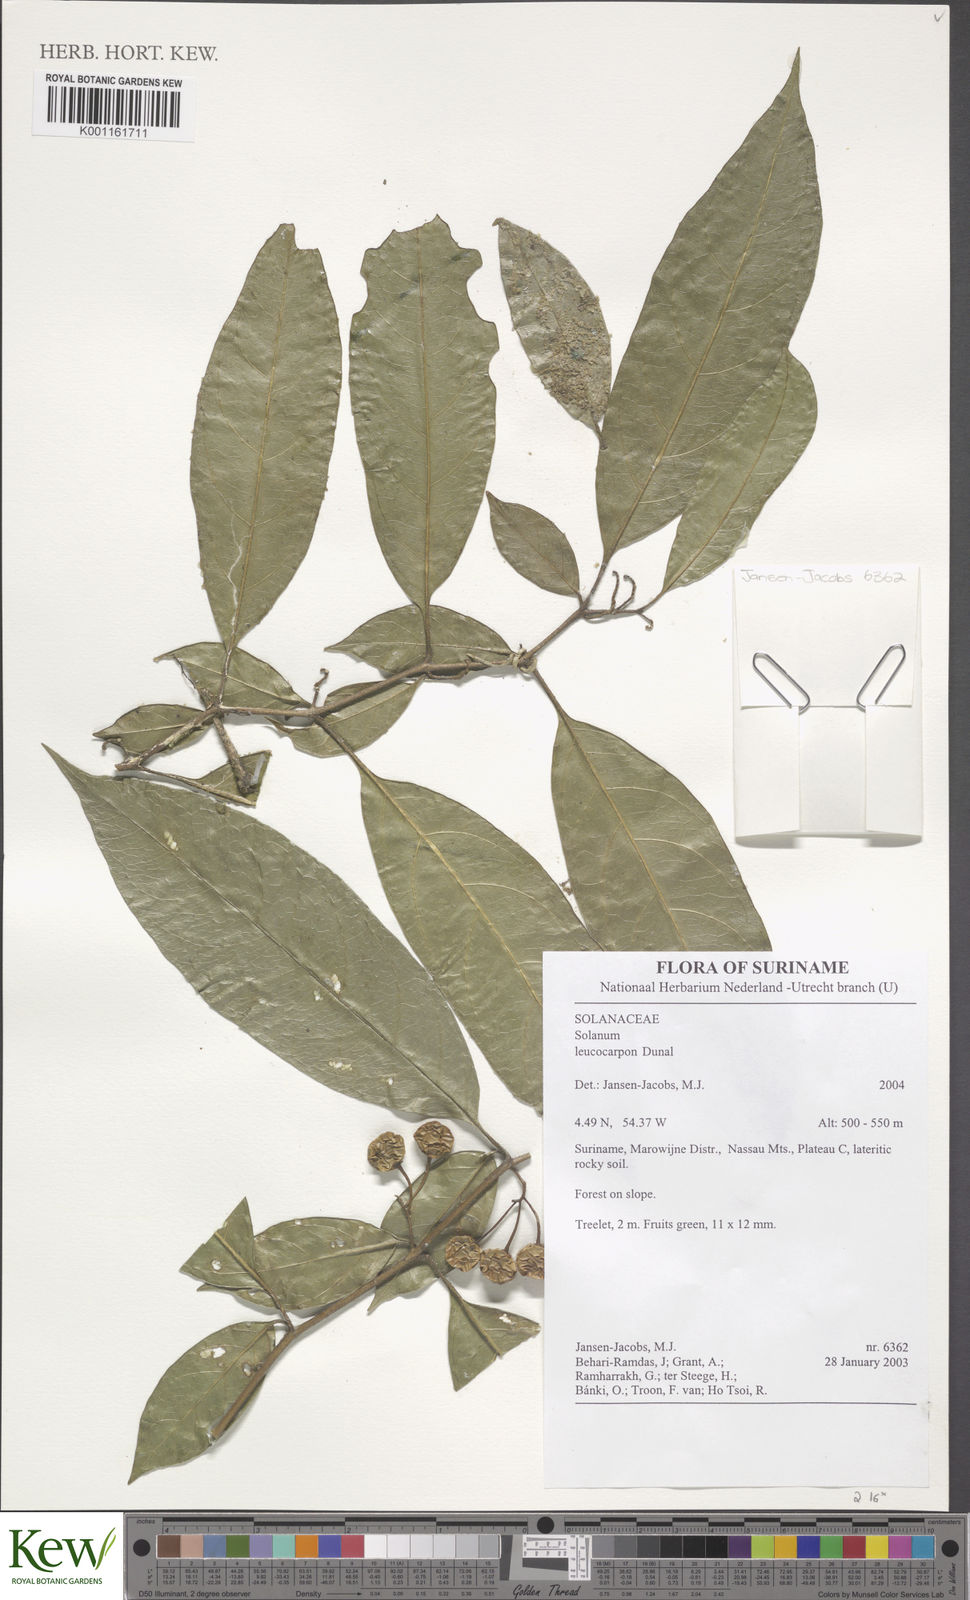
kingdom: Plantae
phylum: Tracheophyta
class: Magnoliopsida
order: Solanales
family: Solanaceae
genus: Solanum
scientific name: Solanum leucocarpon
